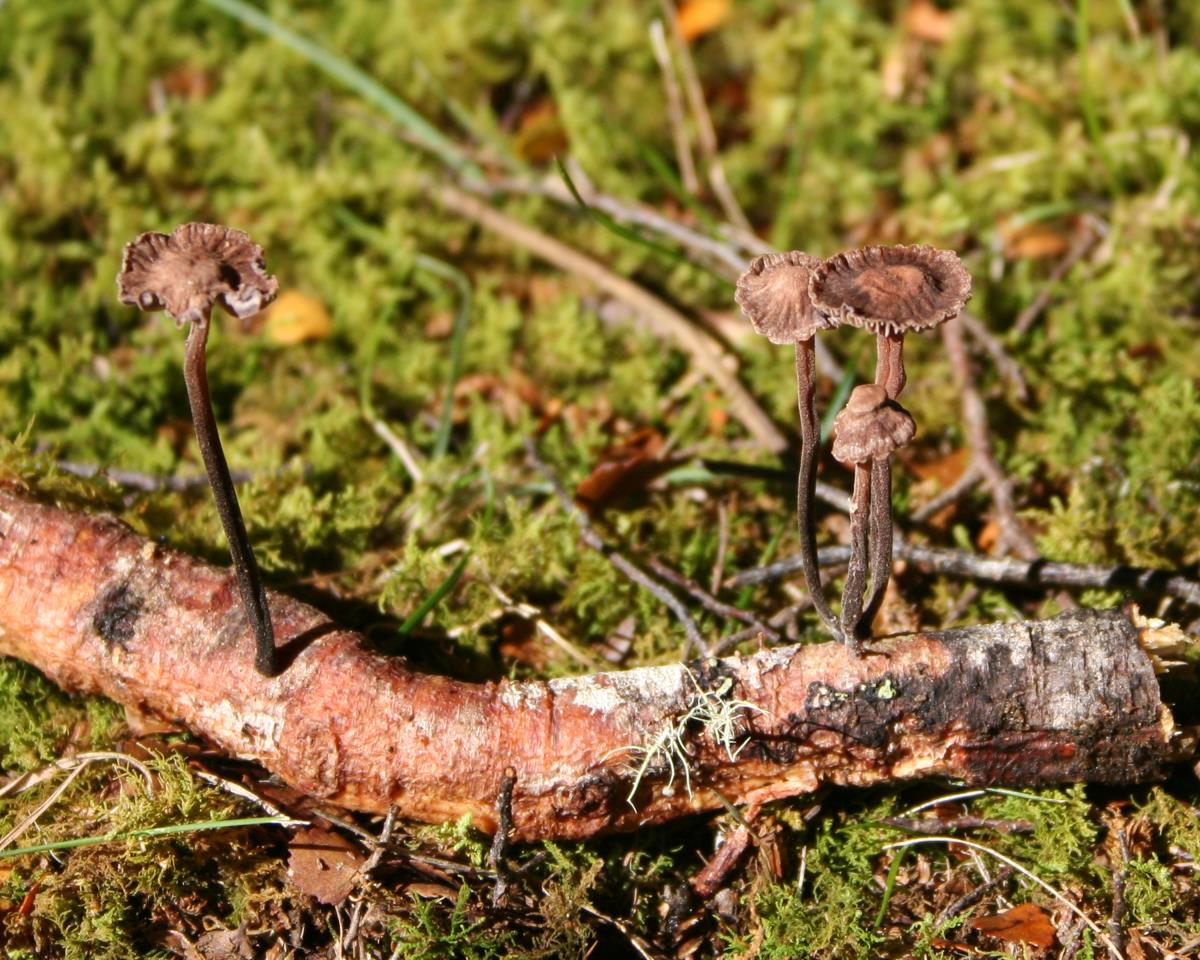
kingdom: Fungi
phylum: Basidiomycota
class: Agaricomycetes
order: Agaricales
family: Omphalotaceae
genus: Gymnopus
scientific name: Gymnopus ceraceicola
